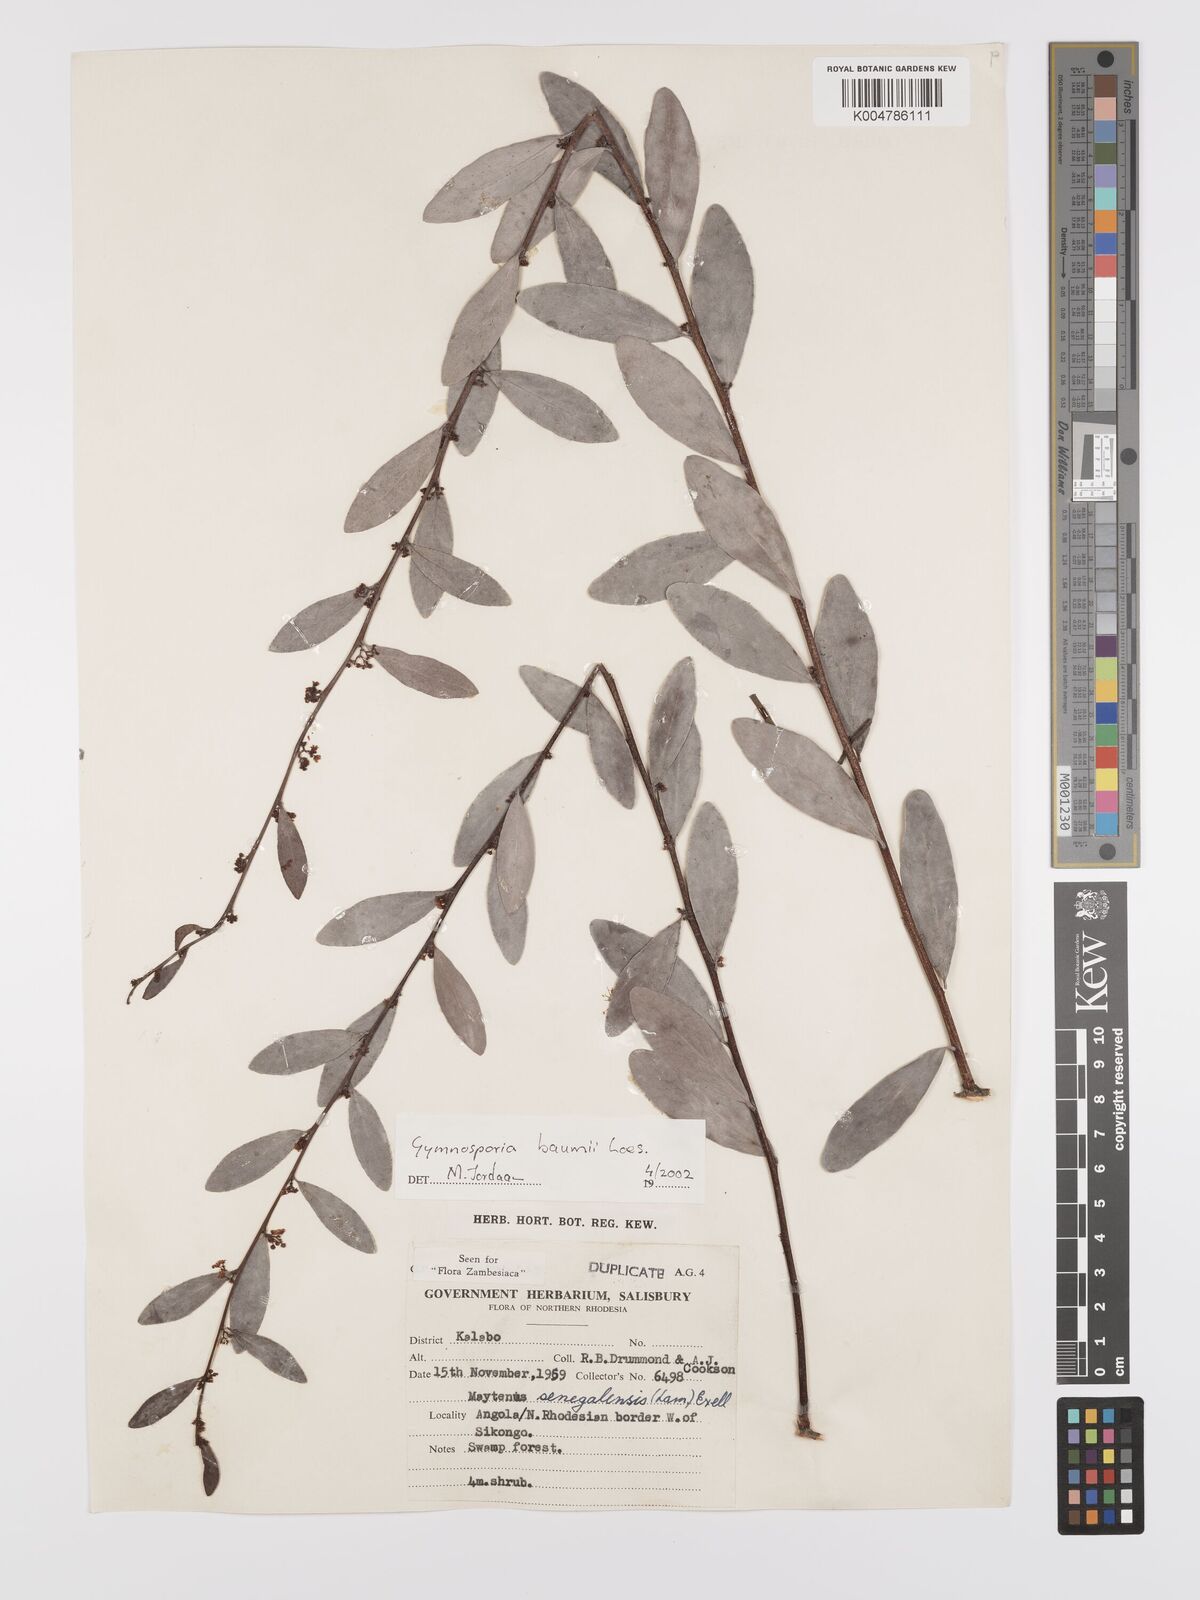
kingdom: Plantae
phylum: Tracheophyta
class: Magnoliopsida
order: Celastrales
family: Celastraceae
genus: Gymnosporia
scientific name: Gymnosporia senegalensis
